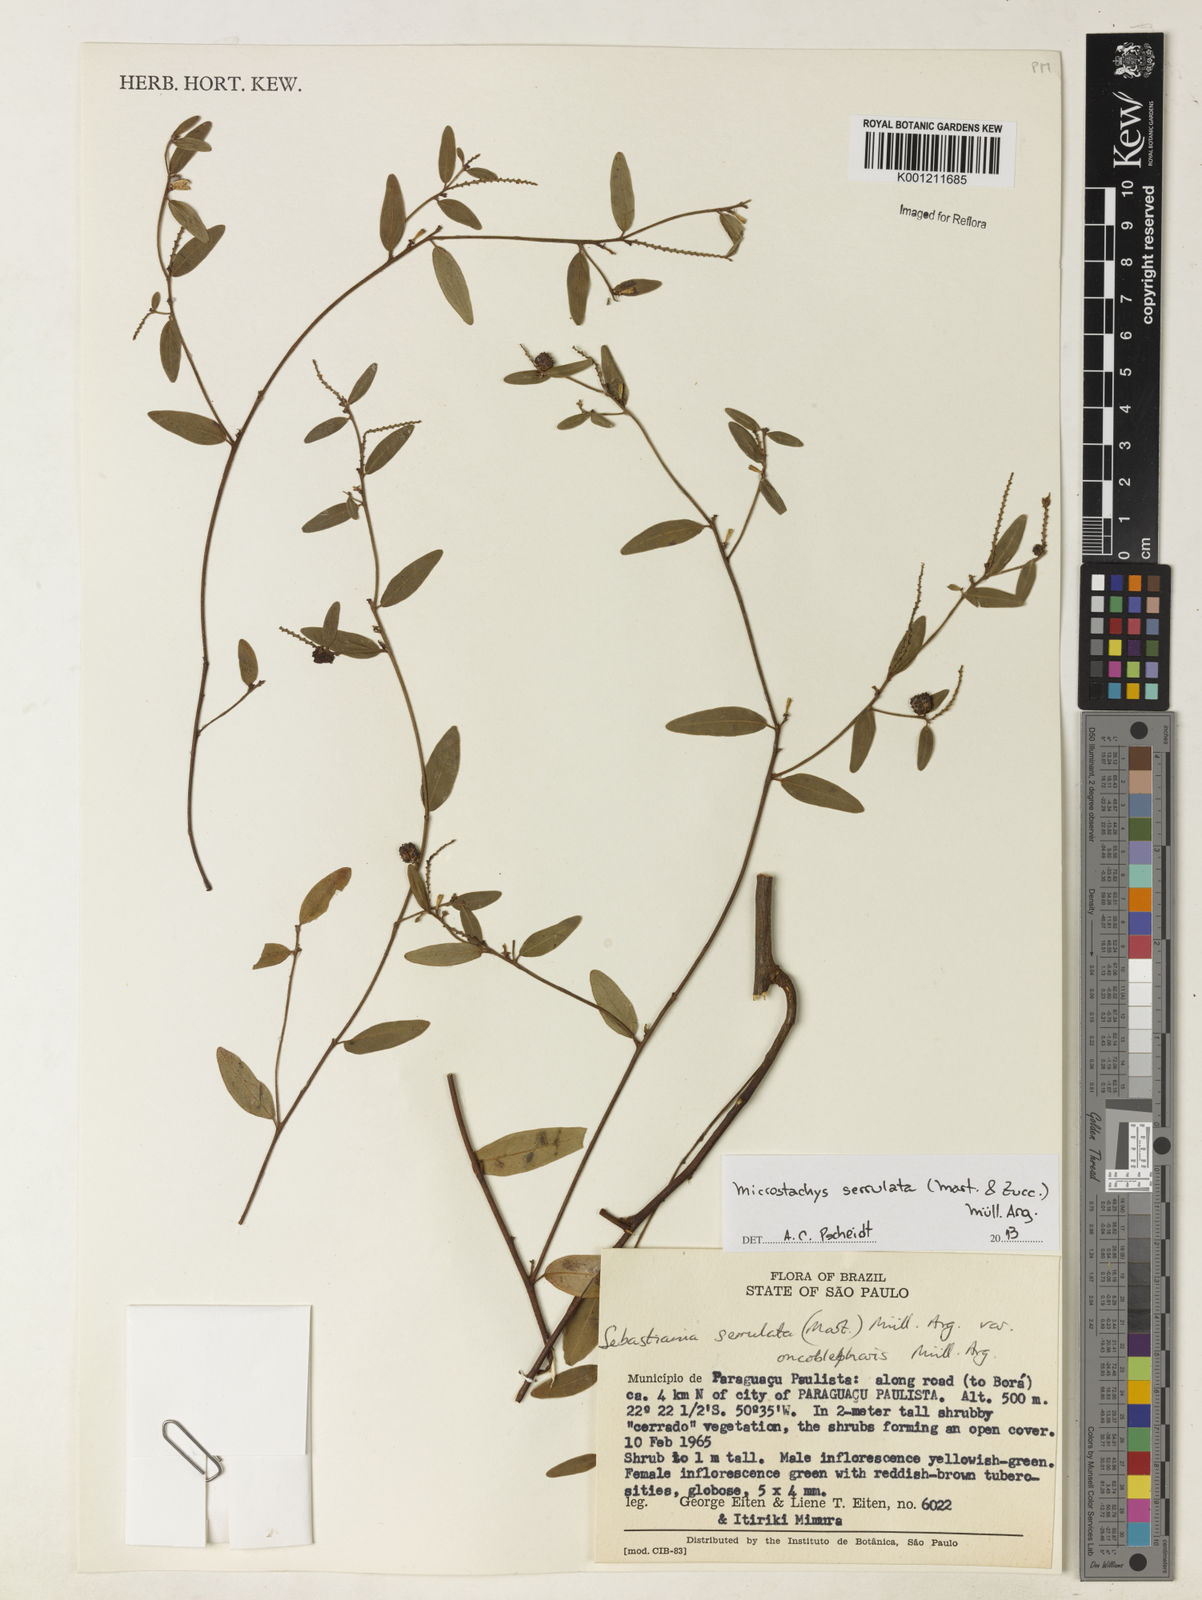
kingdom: Plantae
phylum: Tracheophyta
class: Magnoliopsida
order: Malpighiales
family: Euphorbiaceae
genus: Microstachys
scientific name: Microstachys
